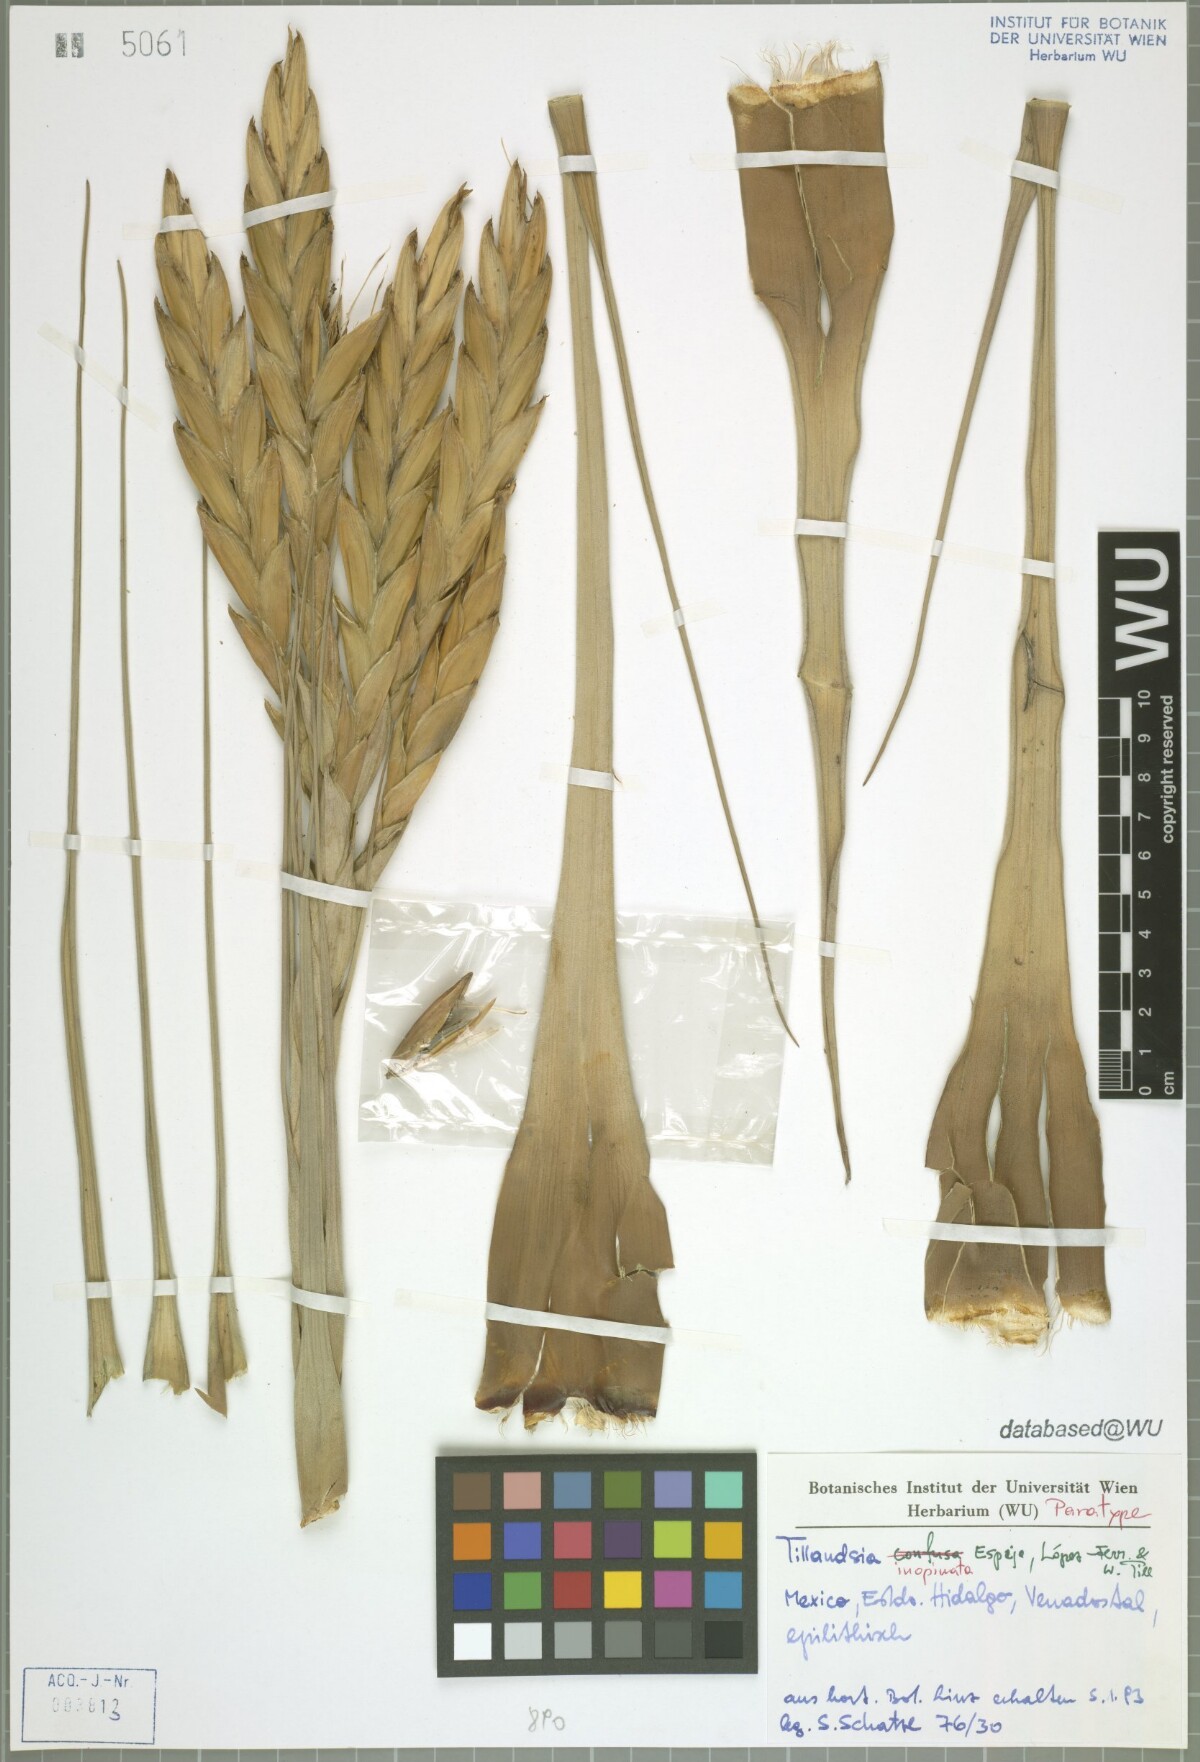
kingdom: Plantae
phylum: Tracheophyta
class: Liliopsida
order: Poales
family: Bromeliaceae
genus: Tillandsia
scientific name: Tillandsia inopinata
